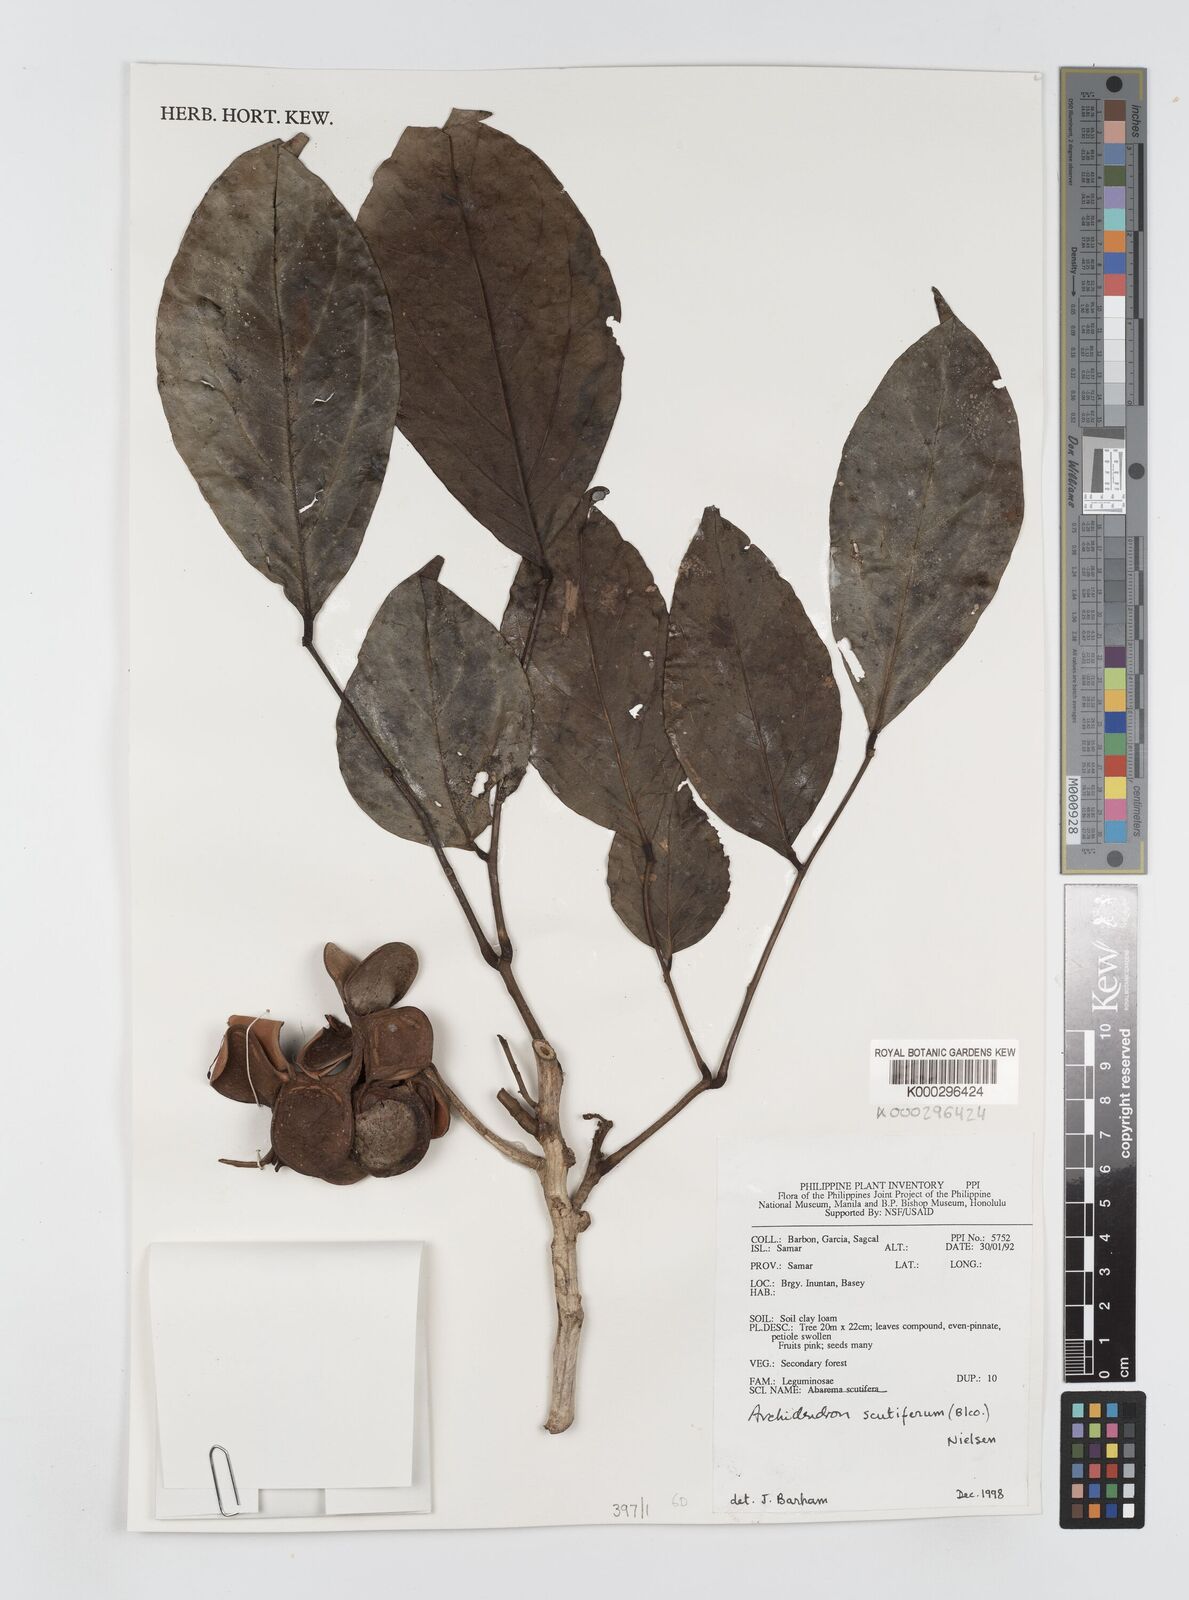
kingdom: Plantae
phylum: Tracheophyta
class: Magnoliopsida
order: Fabales
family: Fabaceae
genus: Archidendron
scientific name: Archidendron scutiferum
